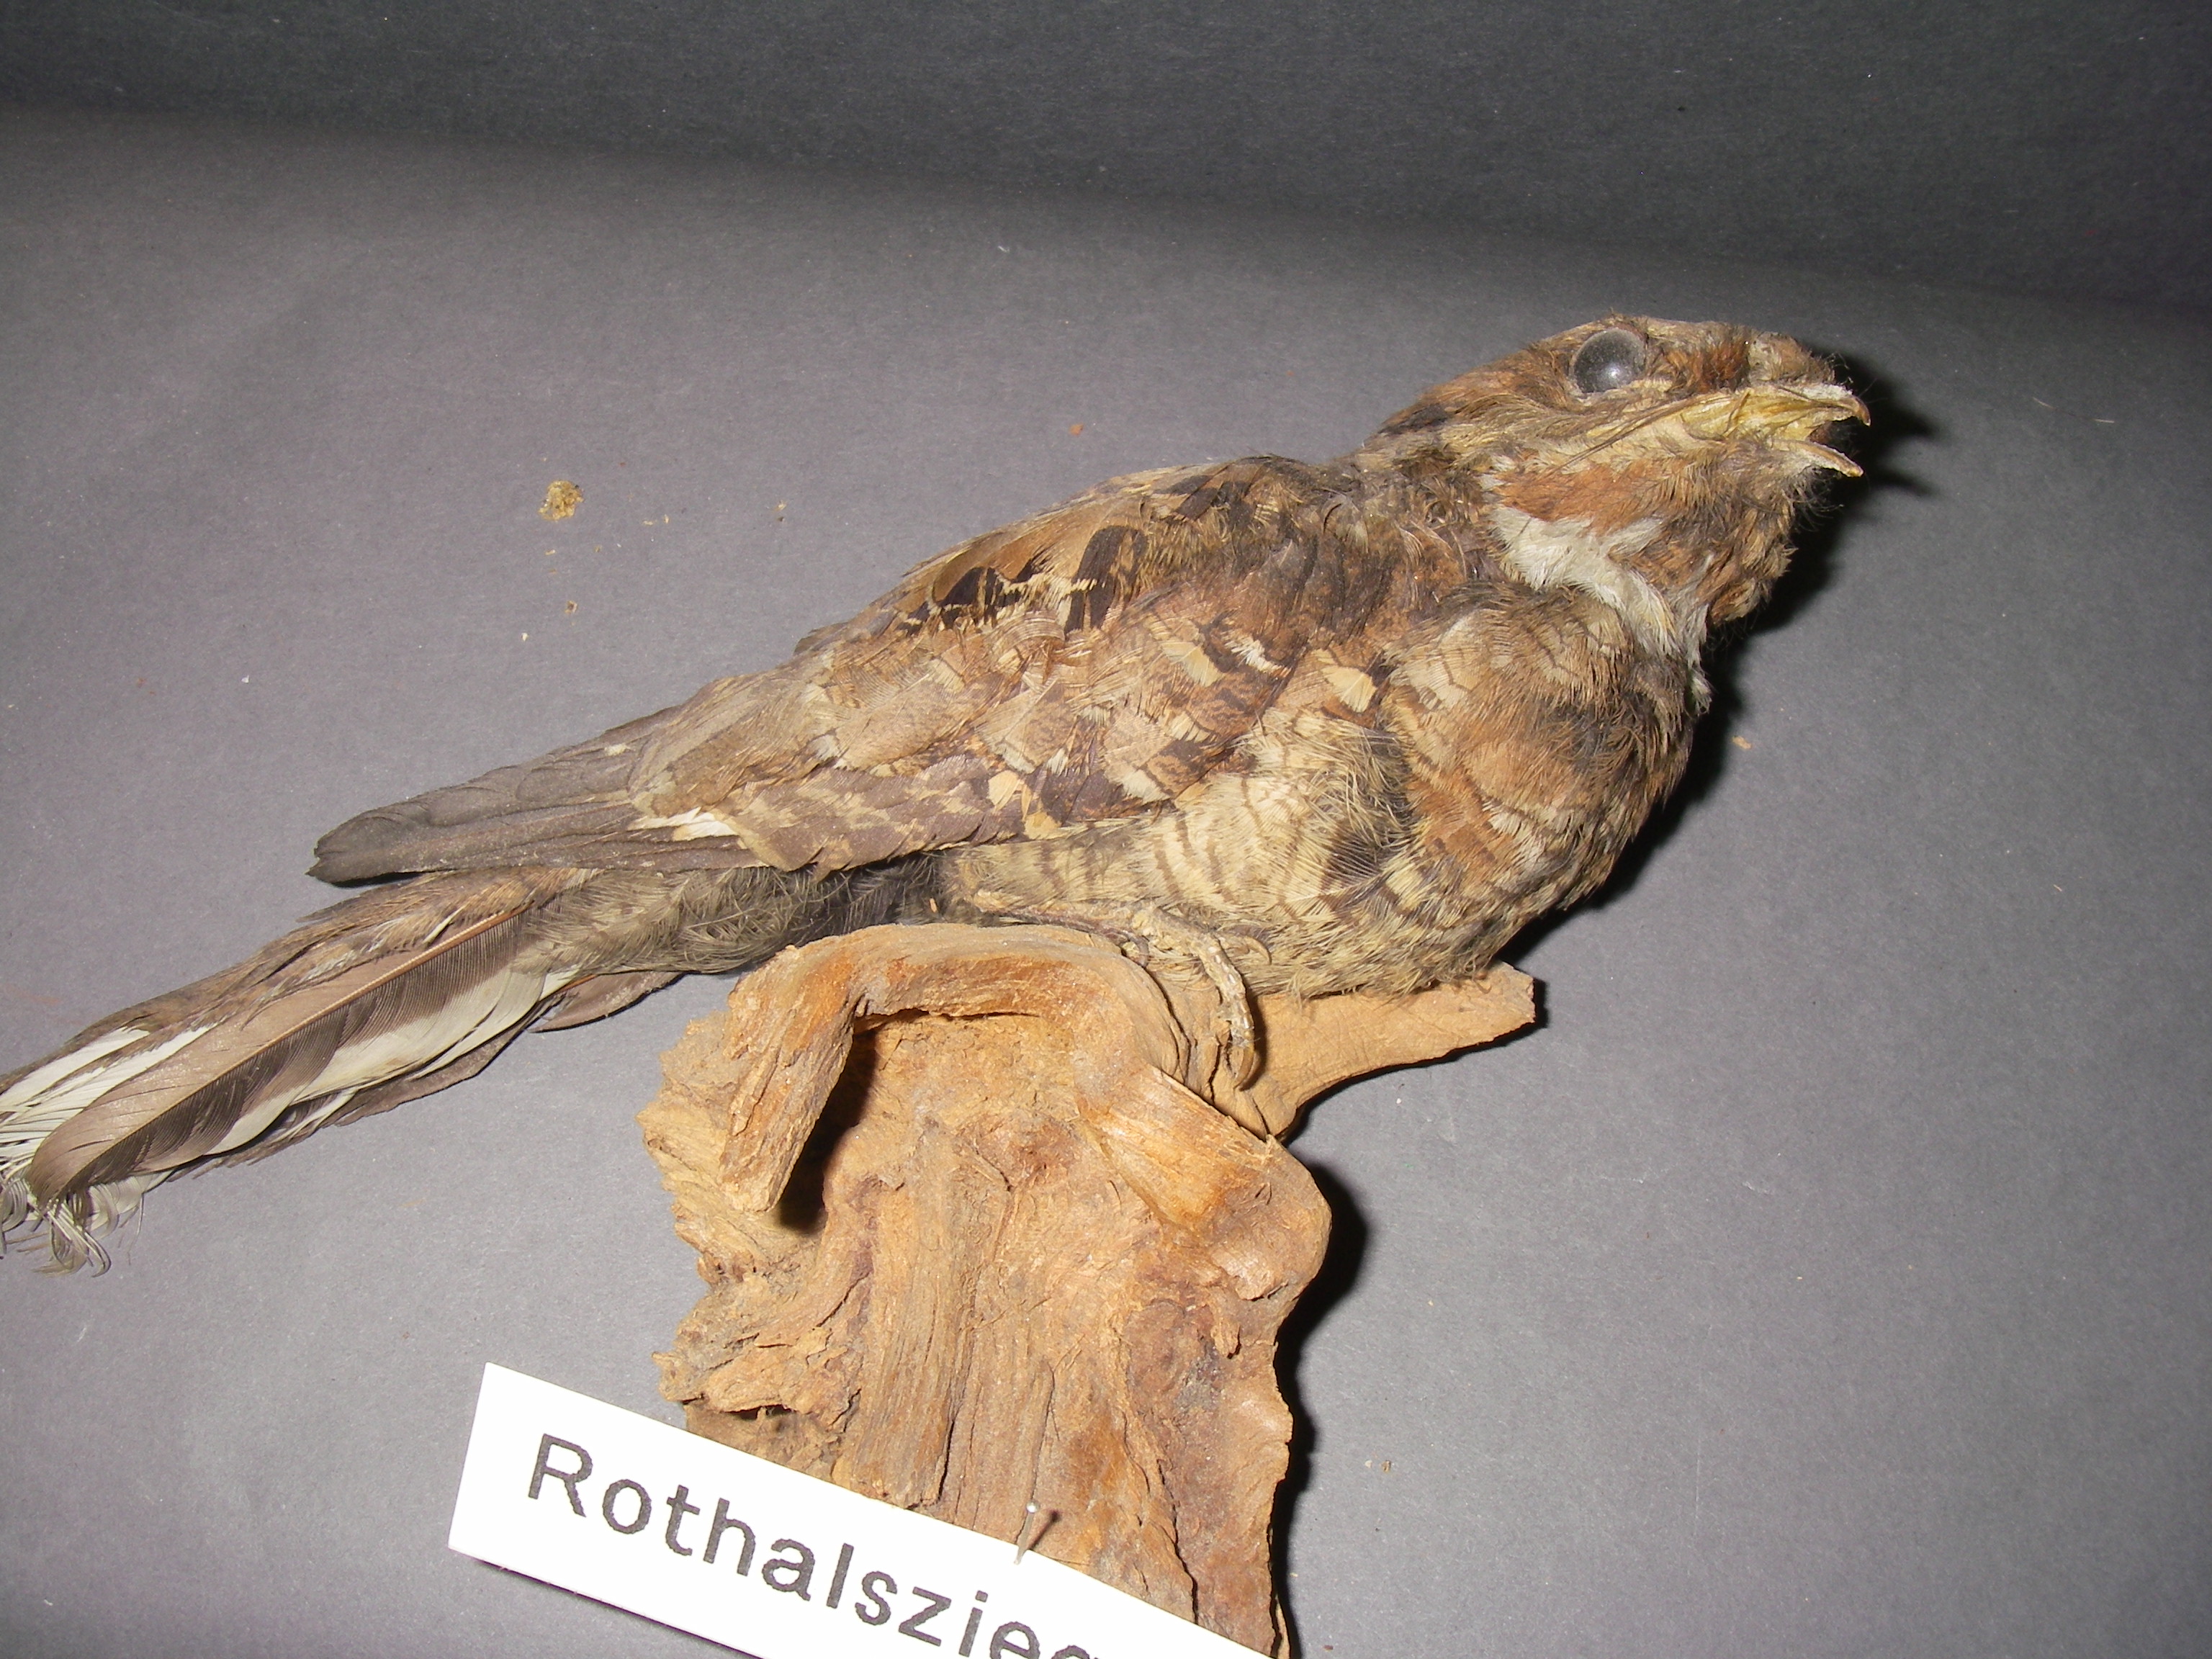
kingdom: Animalia
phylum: Chordata
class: Aves
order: Caprimulgiformes
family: Caprimulgidae
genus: Caprimulgus
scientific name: Caprimulgus ruficollis
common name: Red-necked nightjar
